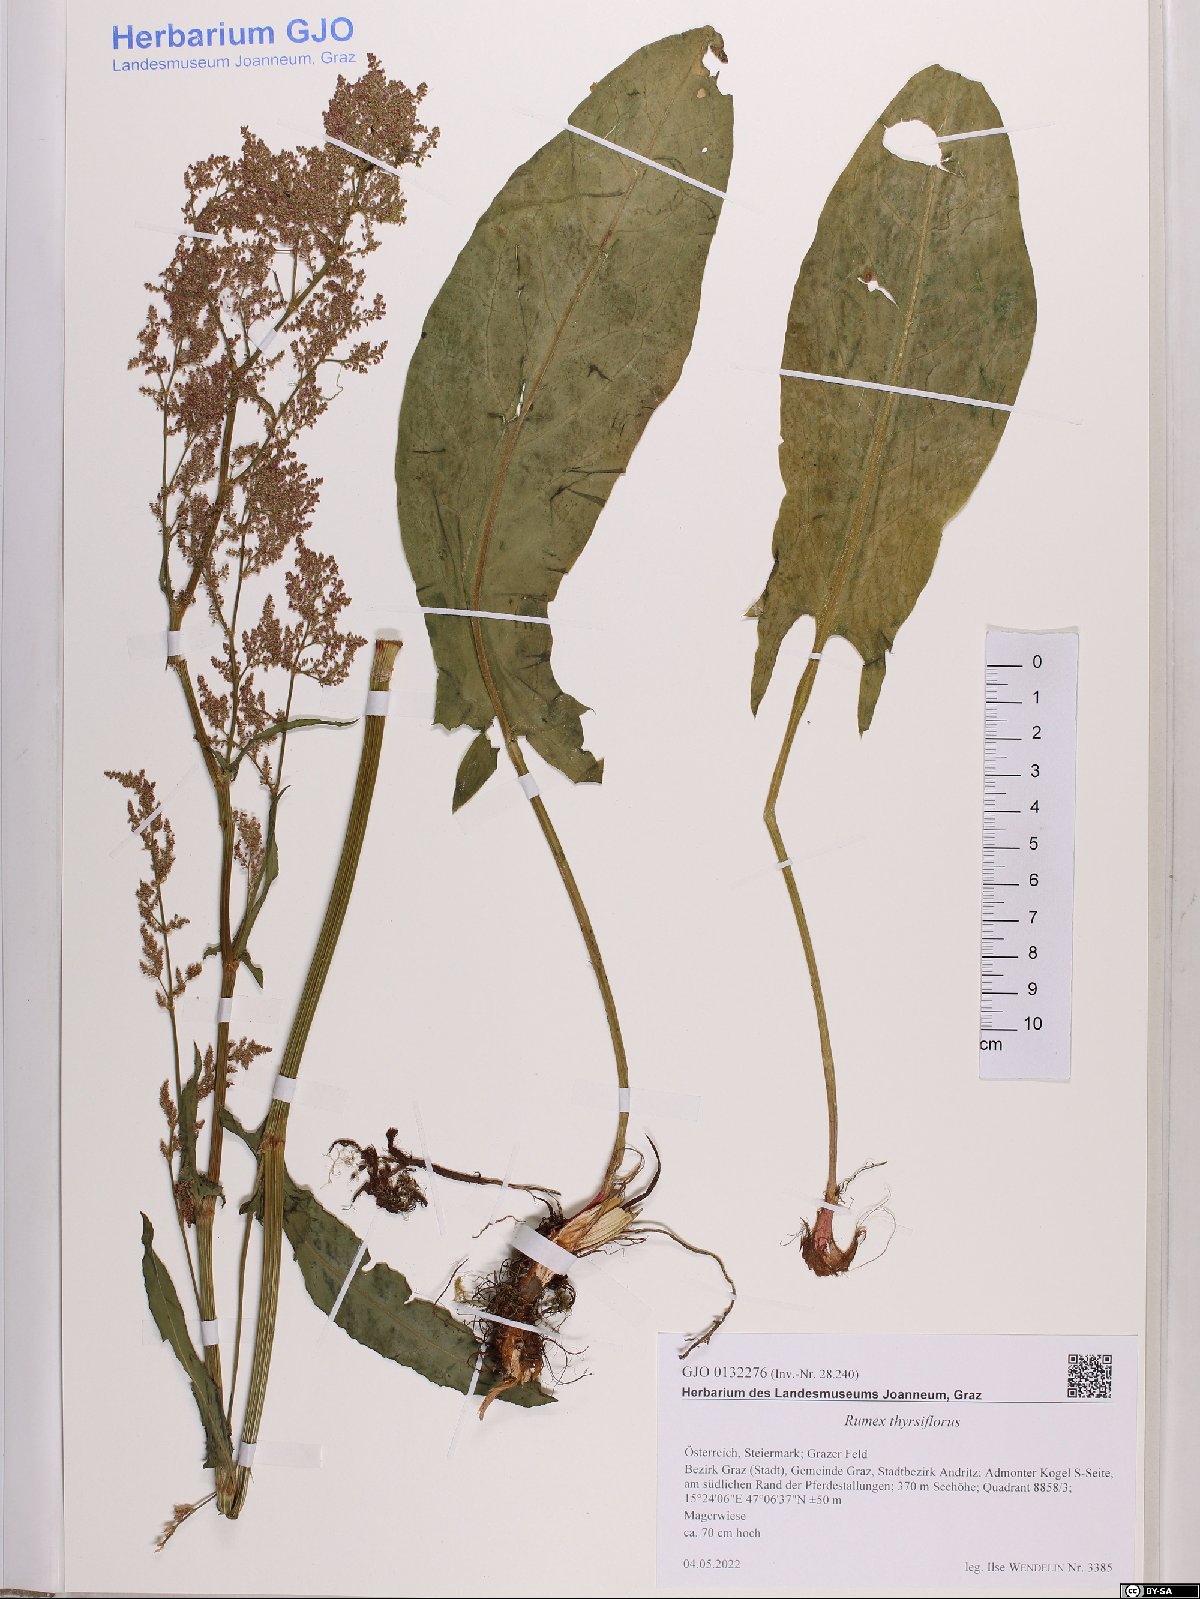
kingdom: Plantae
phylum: Tracheophyta
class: Magnoliopsida
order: Caryophyllales
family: Polygonaceae
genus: Rumex
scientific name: Rumex thyrsiflorus
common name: Garden sorrel
